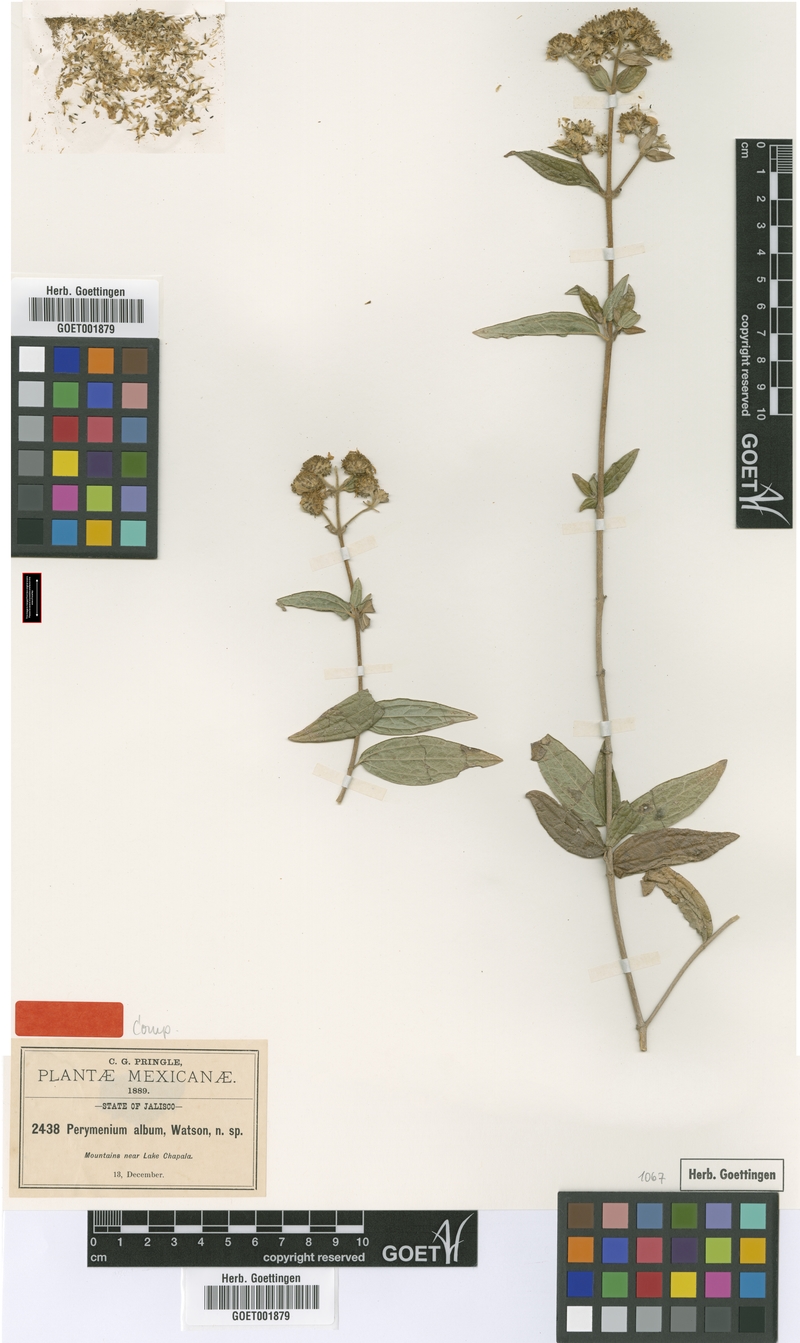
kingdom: Plantae
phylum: Tracheophyta
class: Magnoliopsida
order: Asterales
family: Asteraceae
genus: Perymenium
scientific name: Perymenium album
